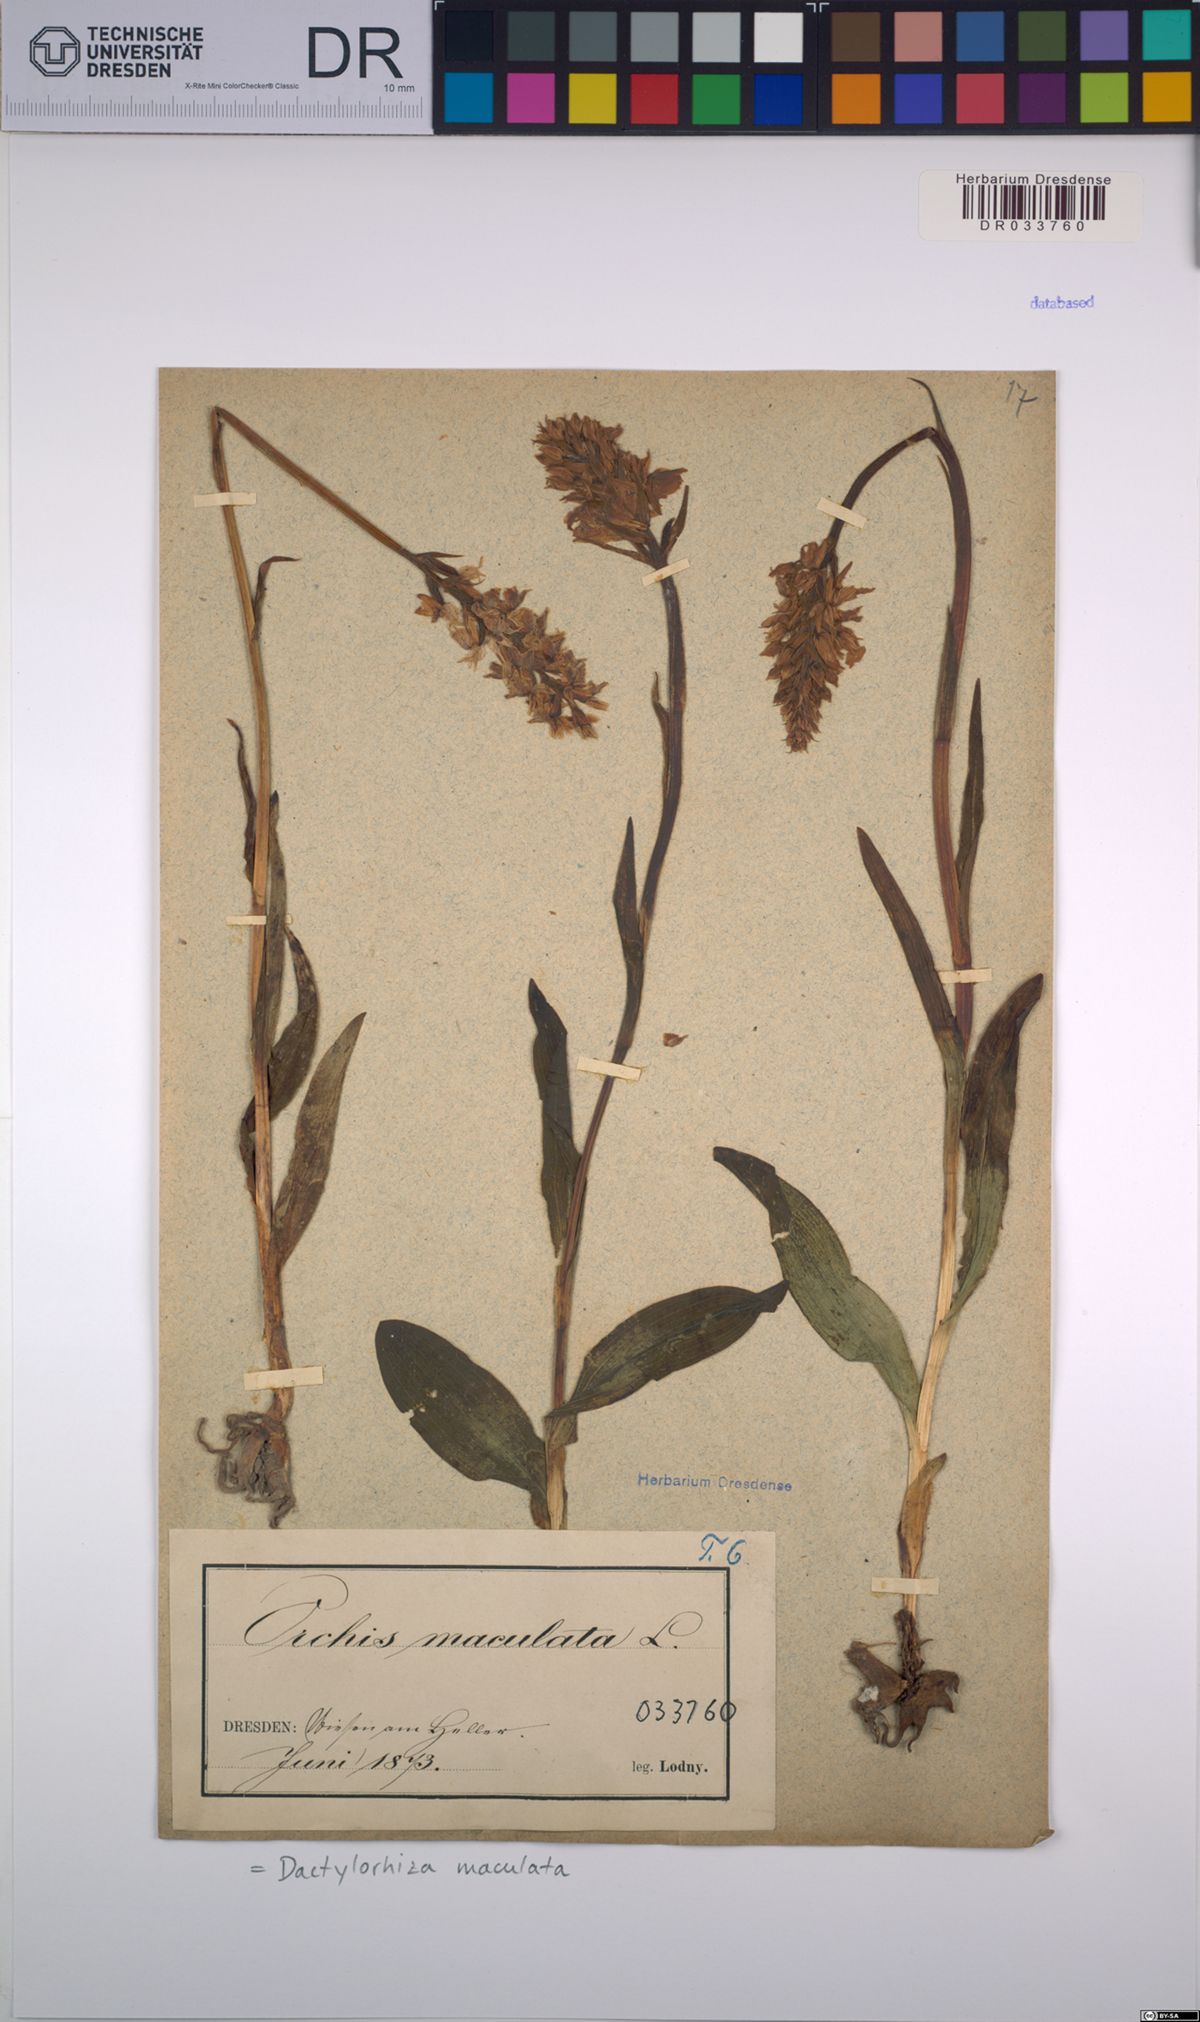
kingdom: Plantae
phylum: Tracheophyta
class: Liliopsida
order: Asparagales
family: Orchidaceae
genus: Dactylorhiza
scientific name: Dactylorhiza maculata
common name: Heath spotted-orchid
